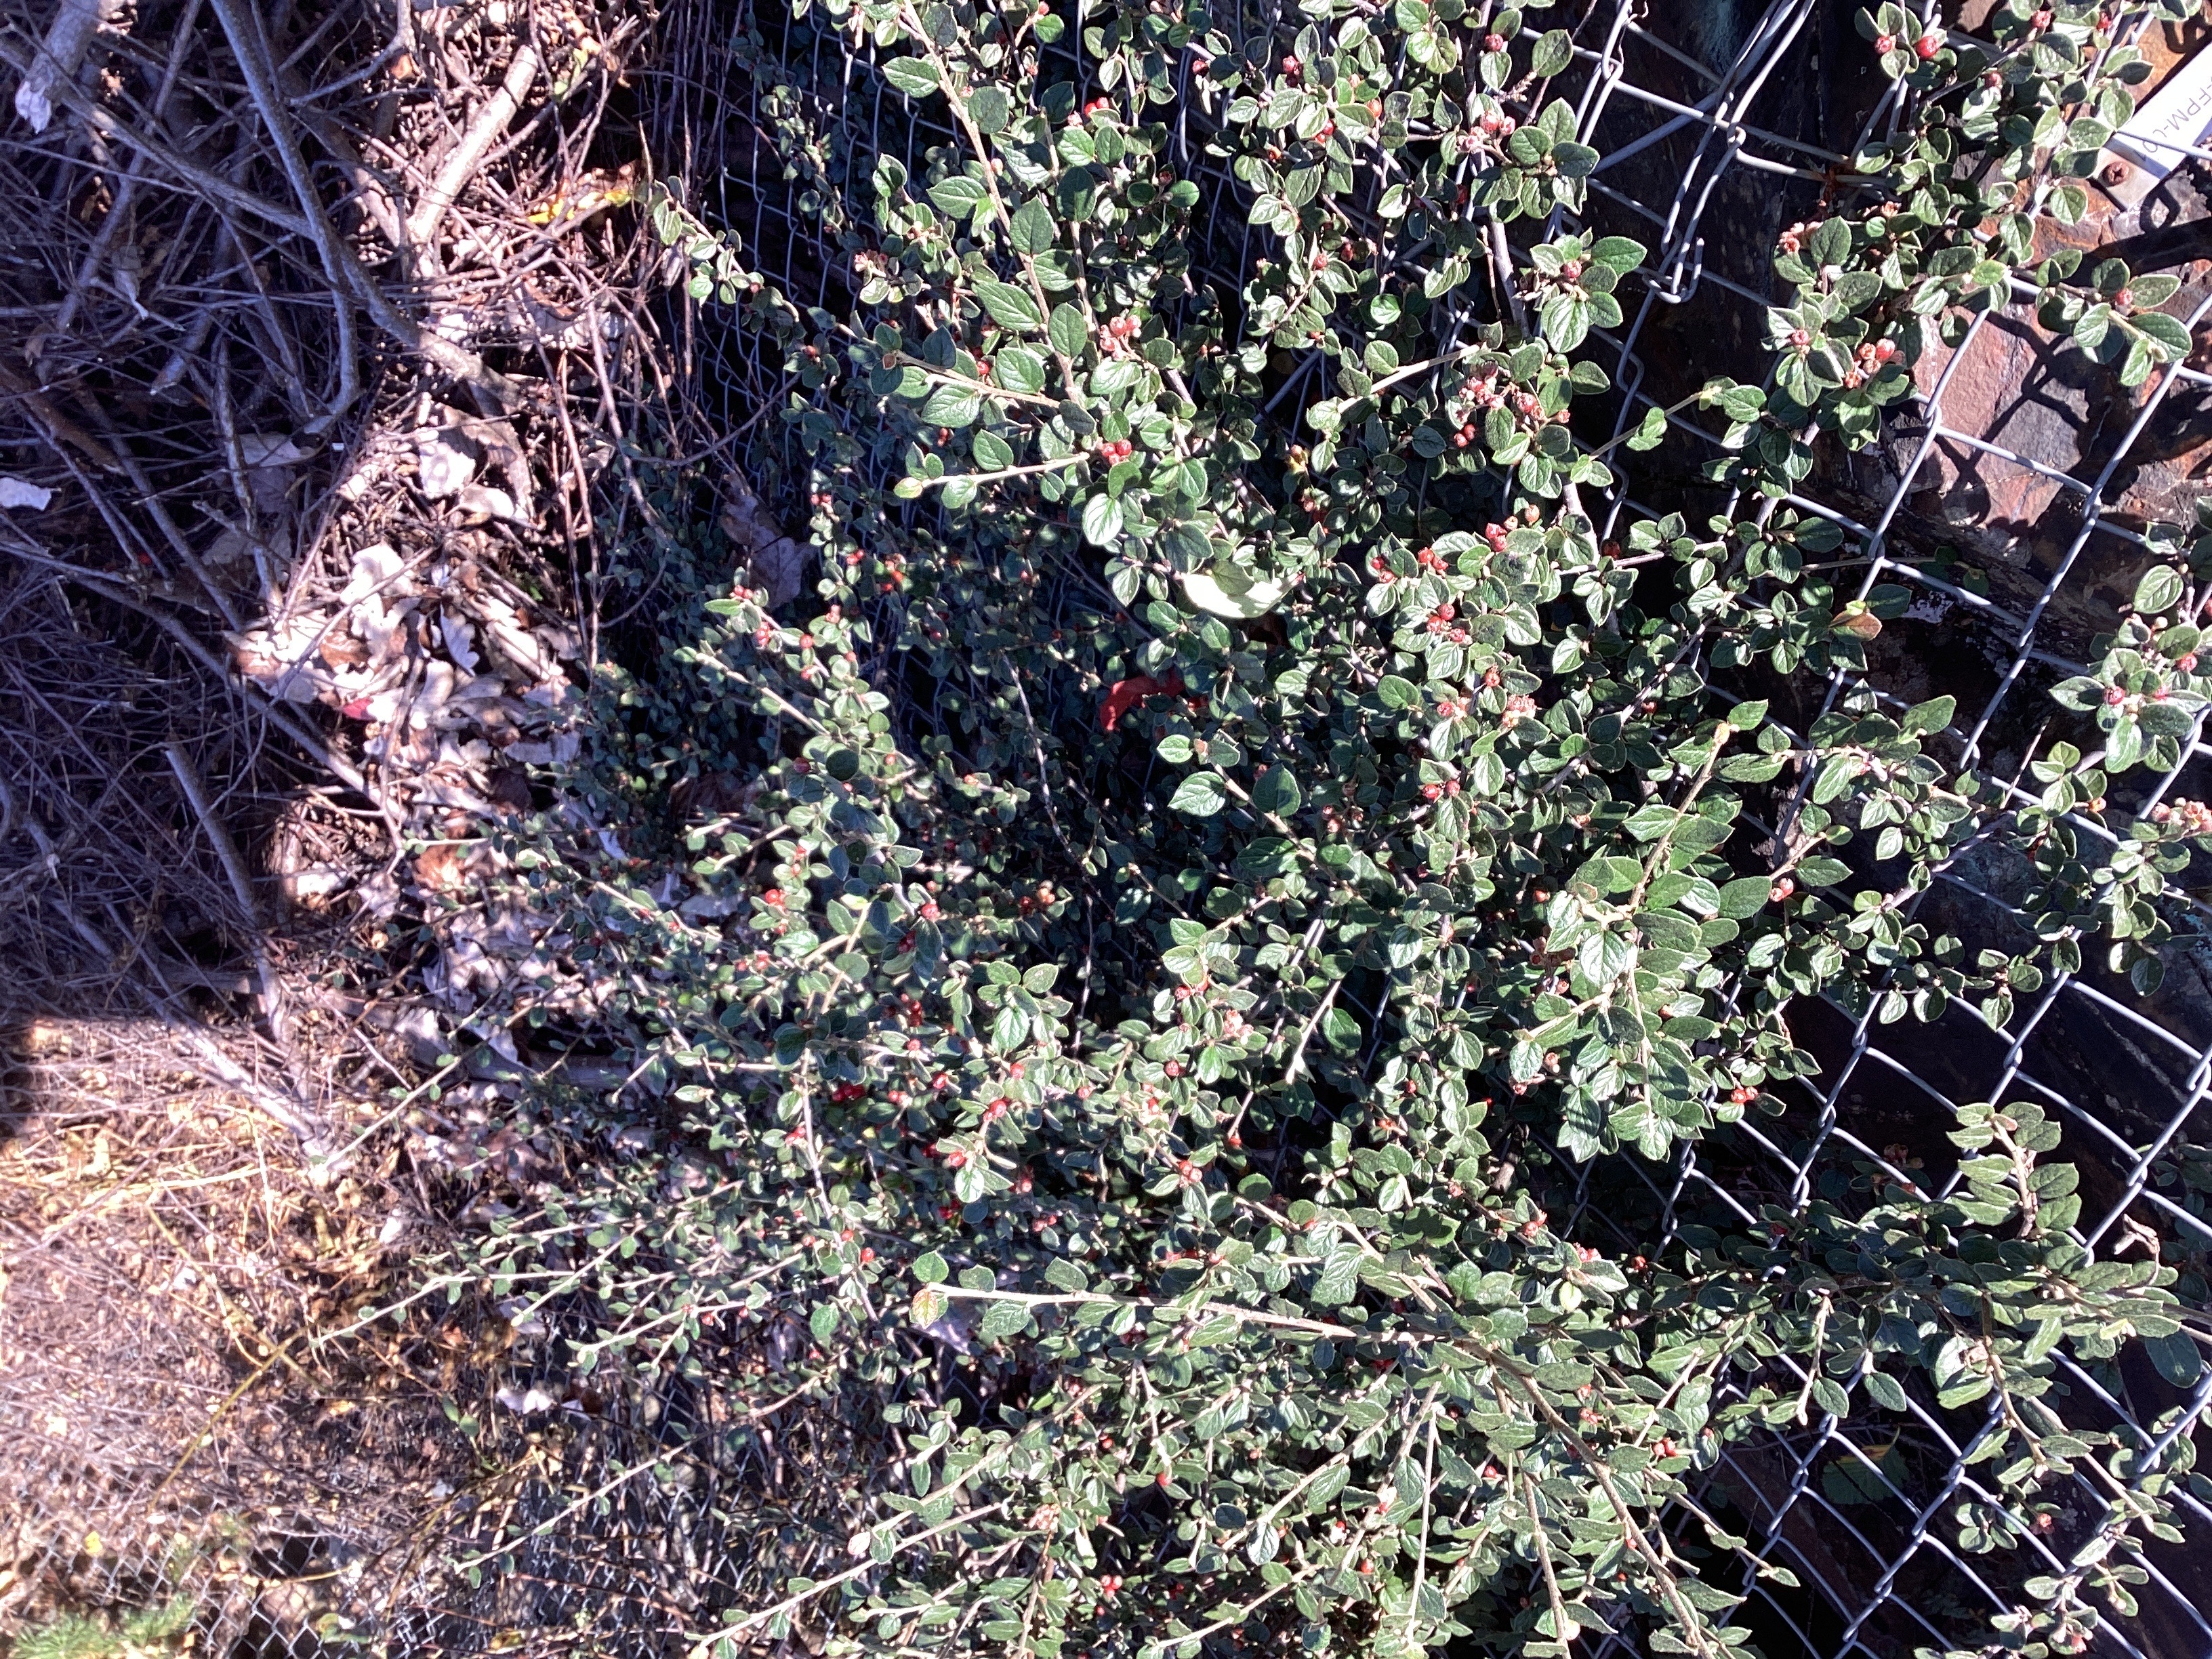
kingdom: Plantae
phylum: Tracheophyta
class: Magnoliopsida
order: Rosales
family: Rosaceae
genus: Cotoneaster
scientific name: Cotoneaster dielsianus
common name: dielsmispel
